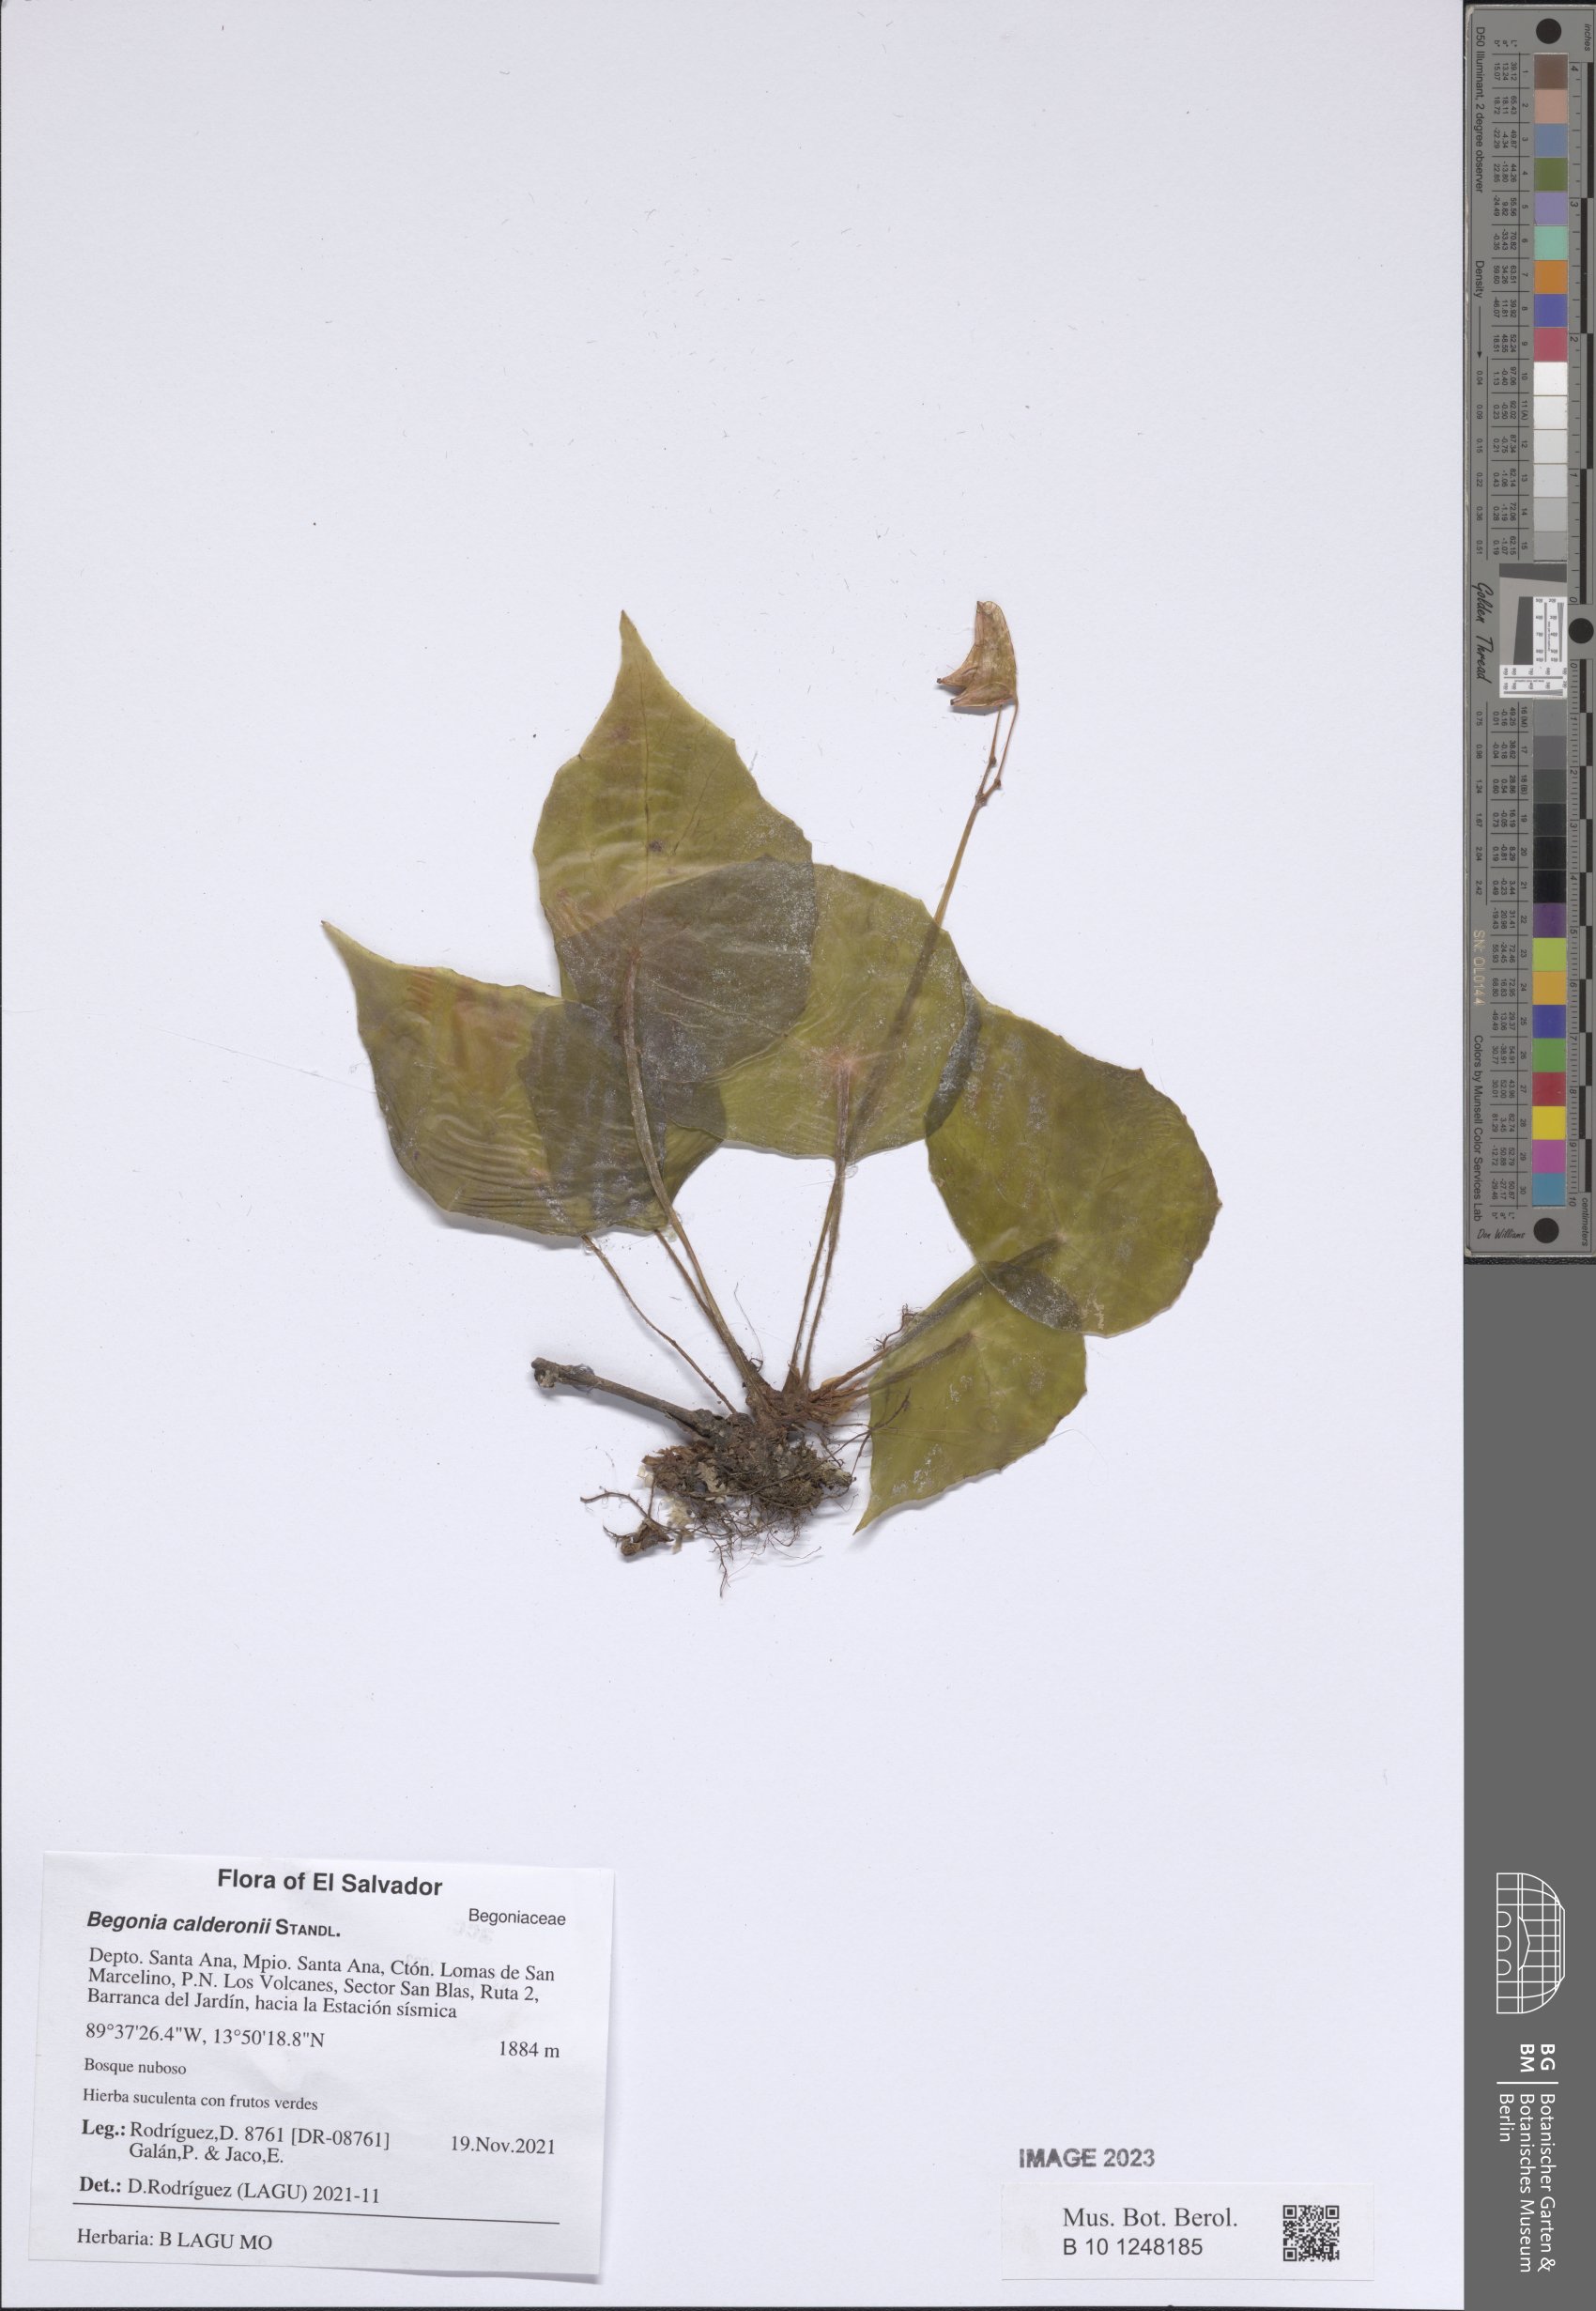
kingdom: Plantae
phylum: Tracheophyta
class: Magnoliopsida
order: Cucurbitales
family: Begoniaceae
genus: Begonia
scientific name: Begonia calderonii
